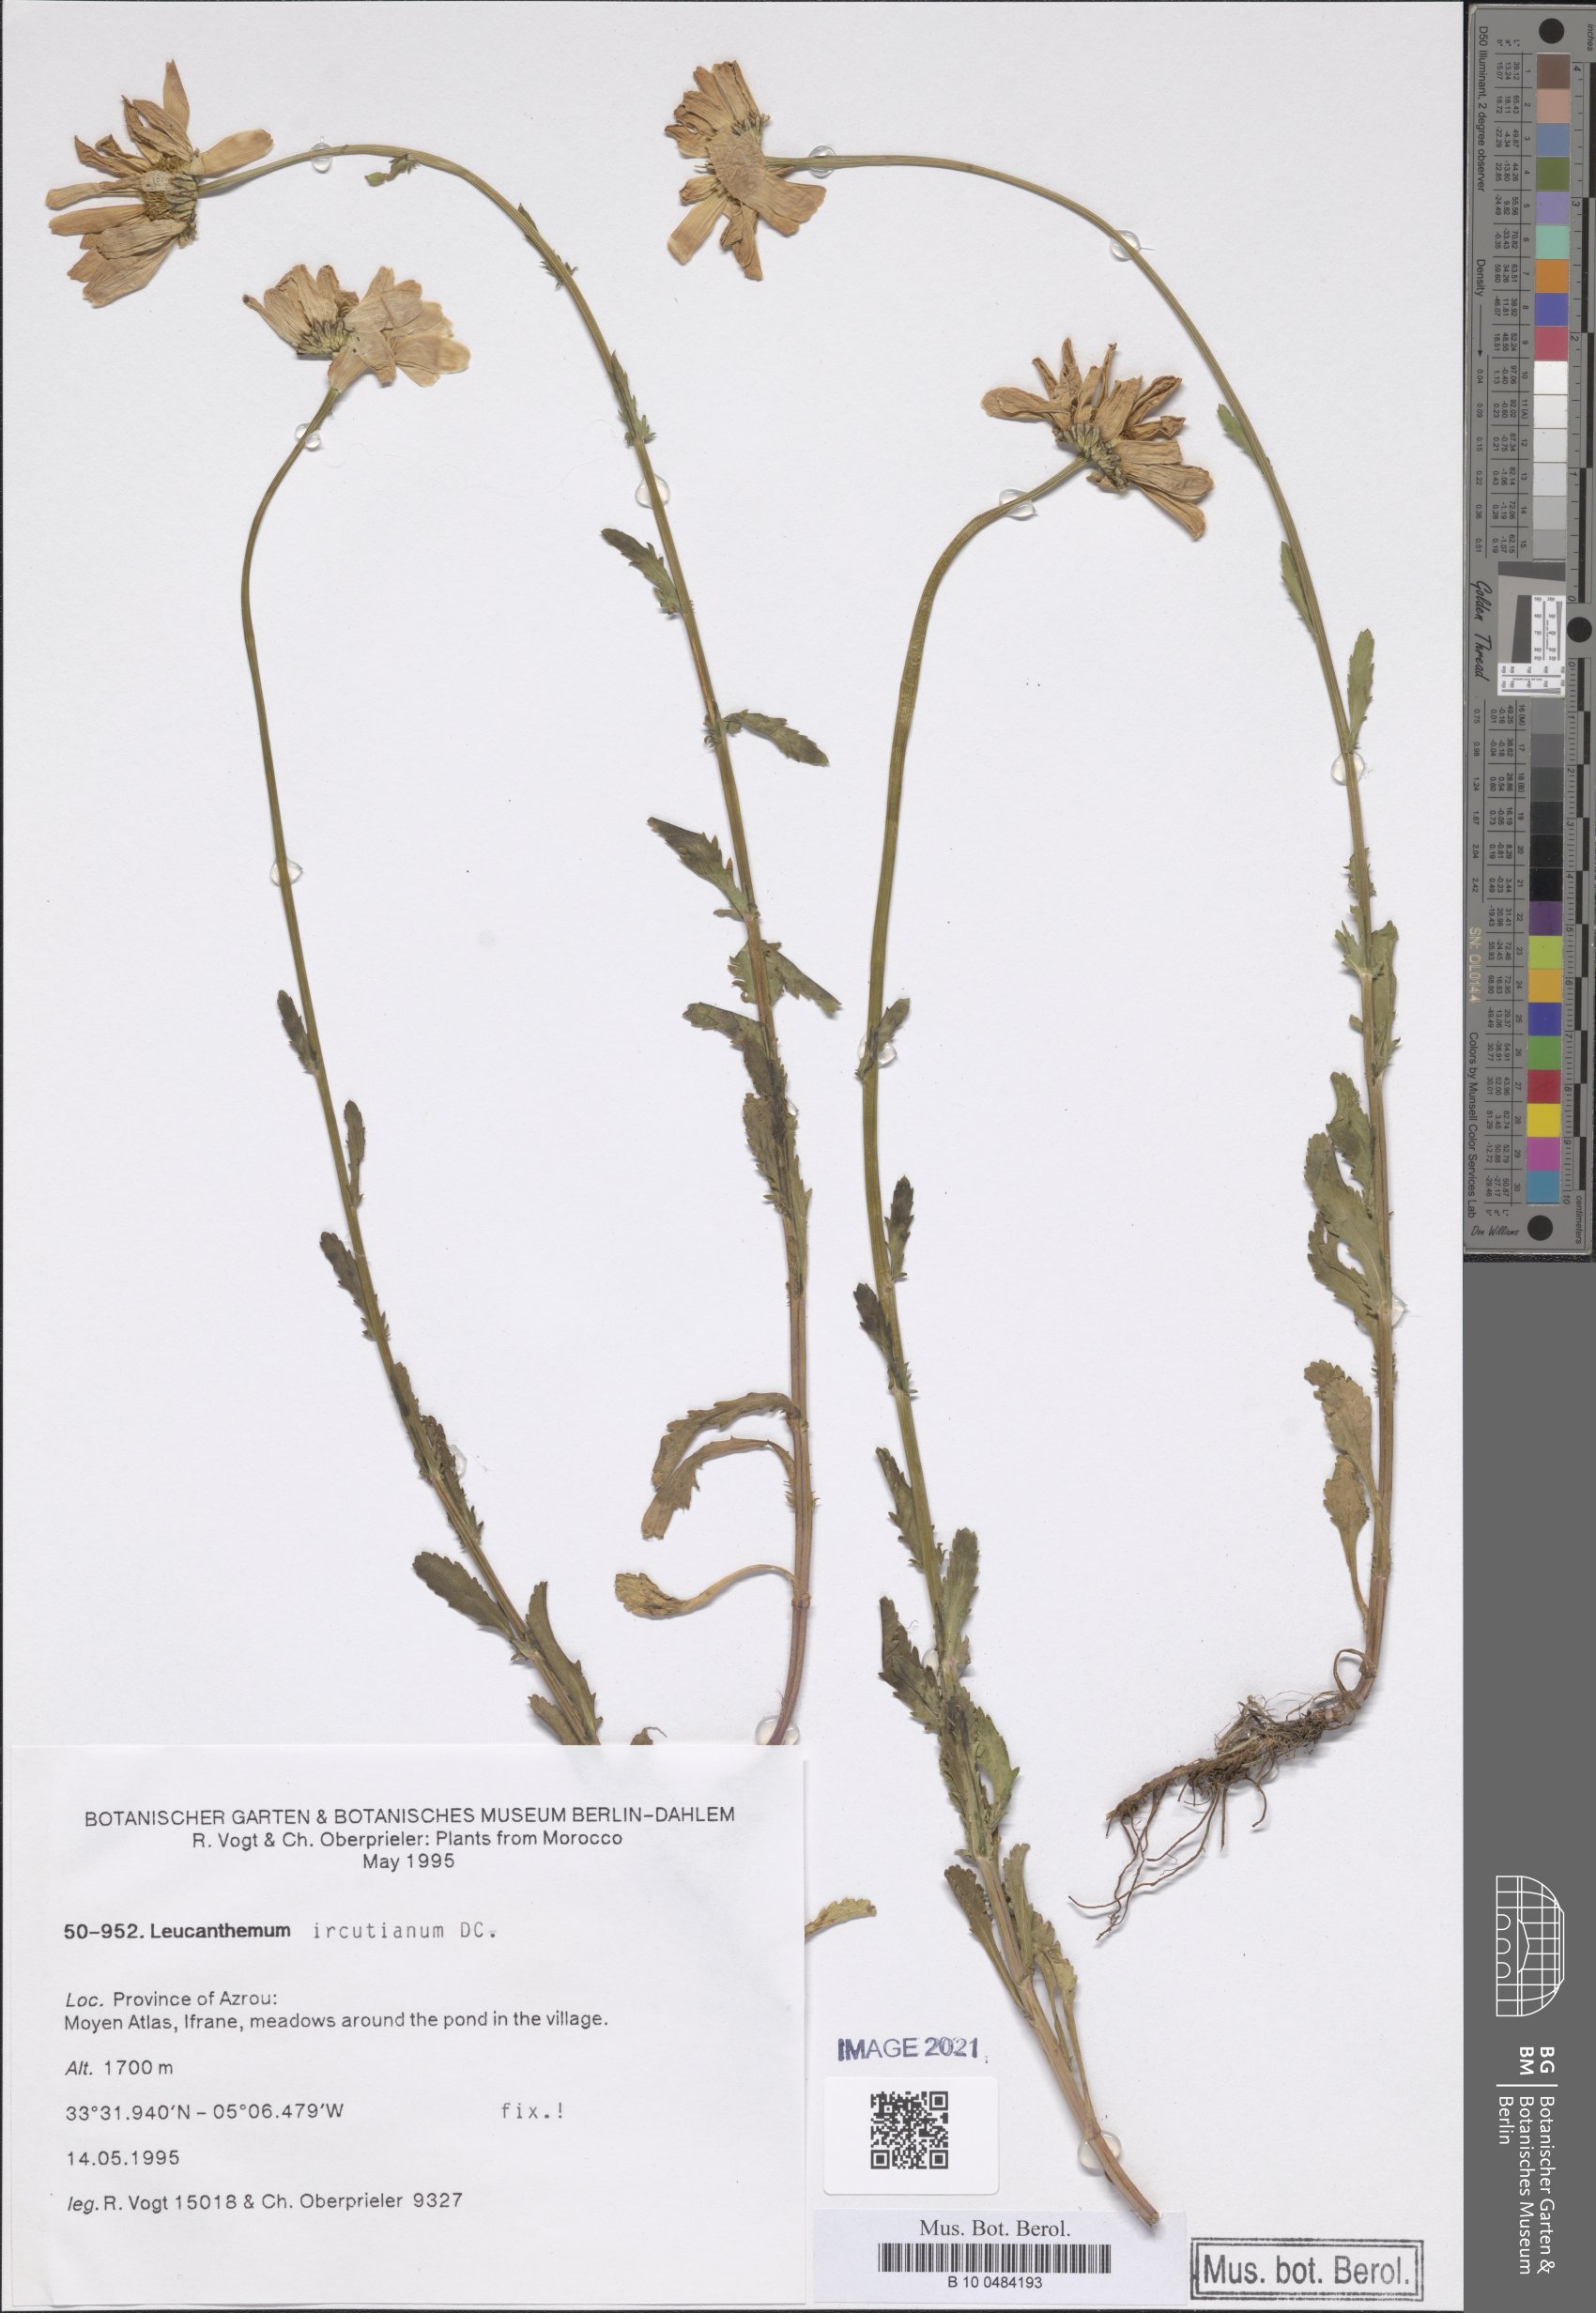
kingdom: Plantae
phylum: Tracheophyta
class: Magnoliopsida
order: Asterales
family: Asteraceae
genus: Leucanthemum
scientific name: Leucanthemum ircutianum
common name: Daisy
